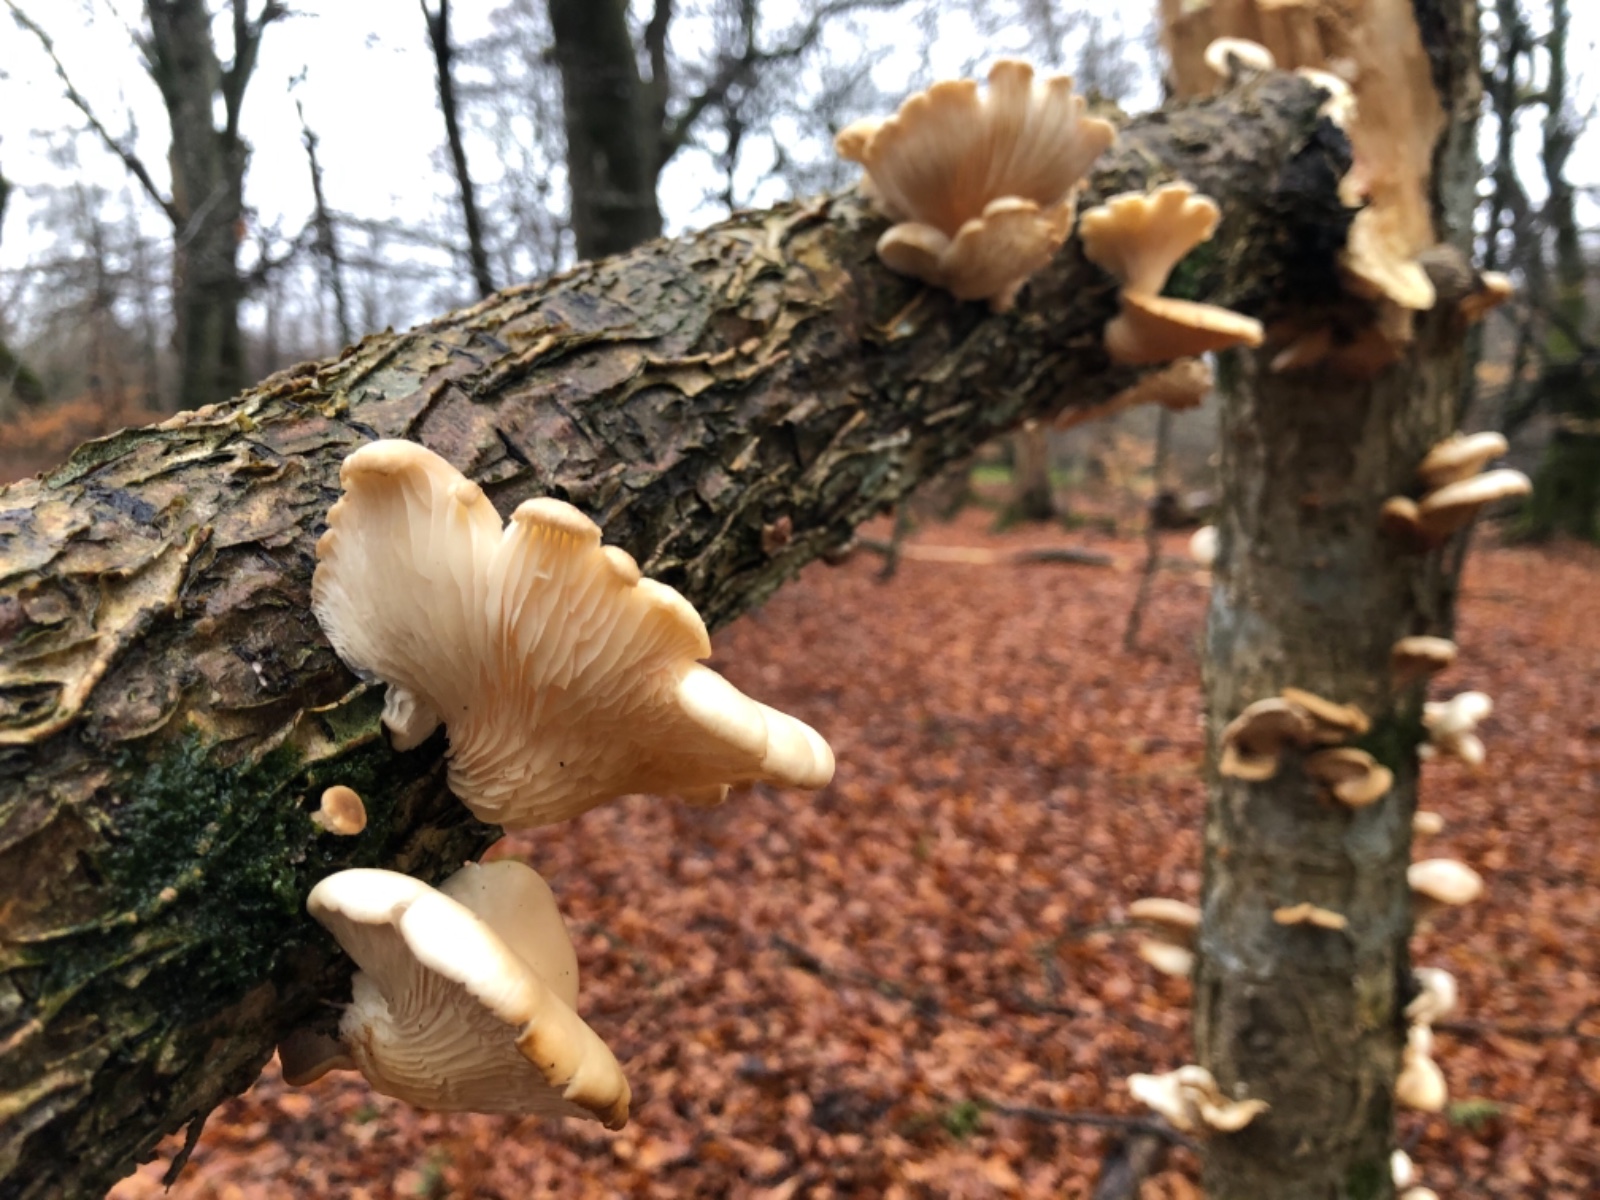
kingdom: Fungi
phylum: Basidiomycota
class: Agaricomycetes
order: Agaricales
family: Pleurotaceae
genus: Pleurotus
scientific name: Pleurotus
